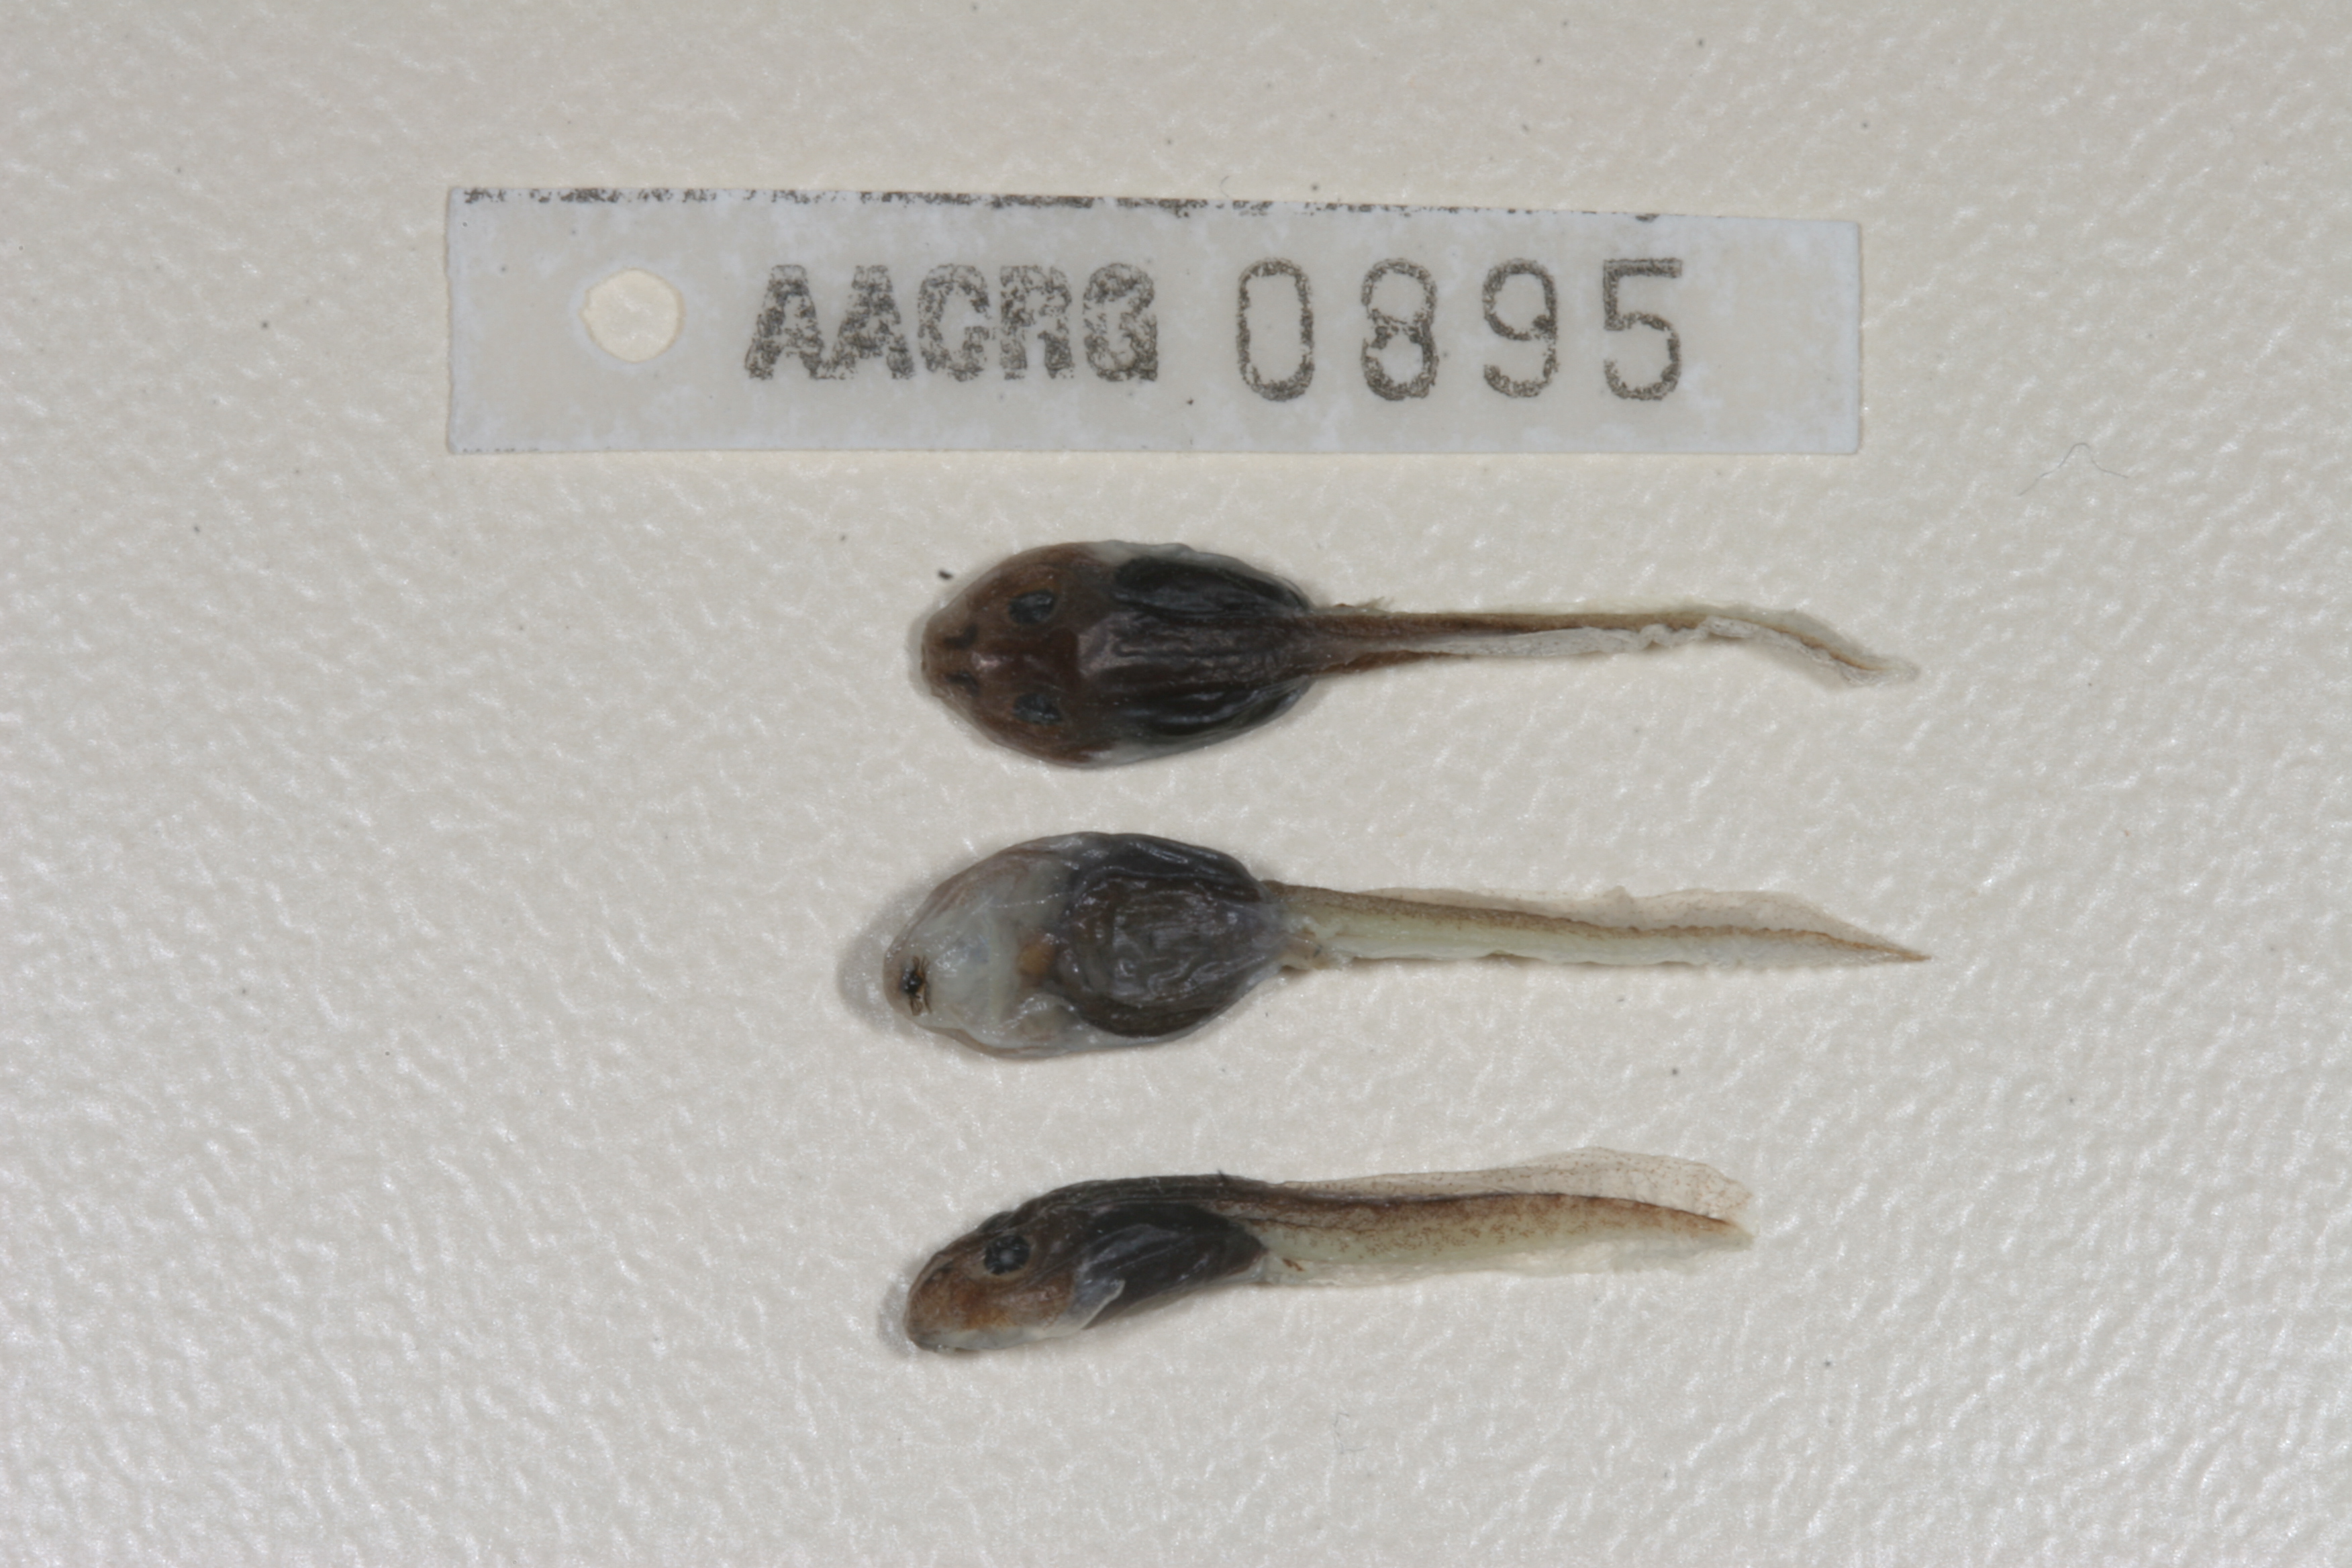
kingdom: Animalia
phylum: Chordata
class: Amphibia
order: Anura
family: Pyxicephalidae
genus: Amietia
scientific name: Amietia angolensis
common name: Dusky-throated frog
